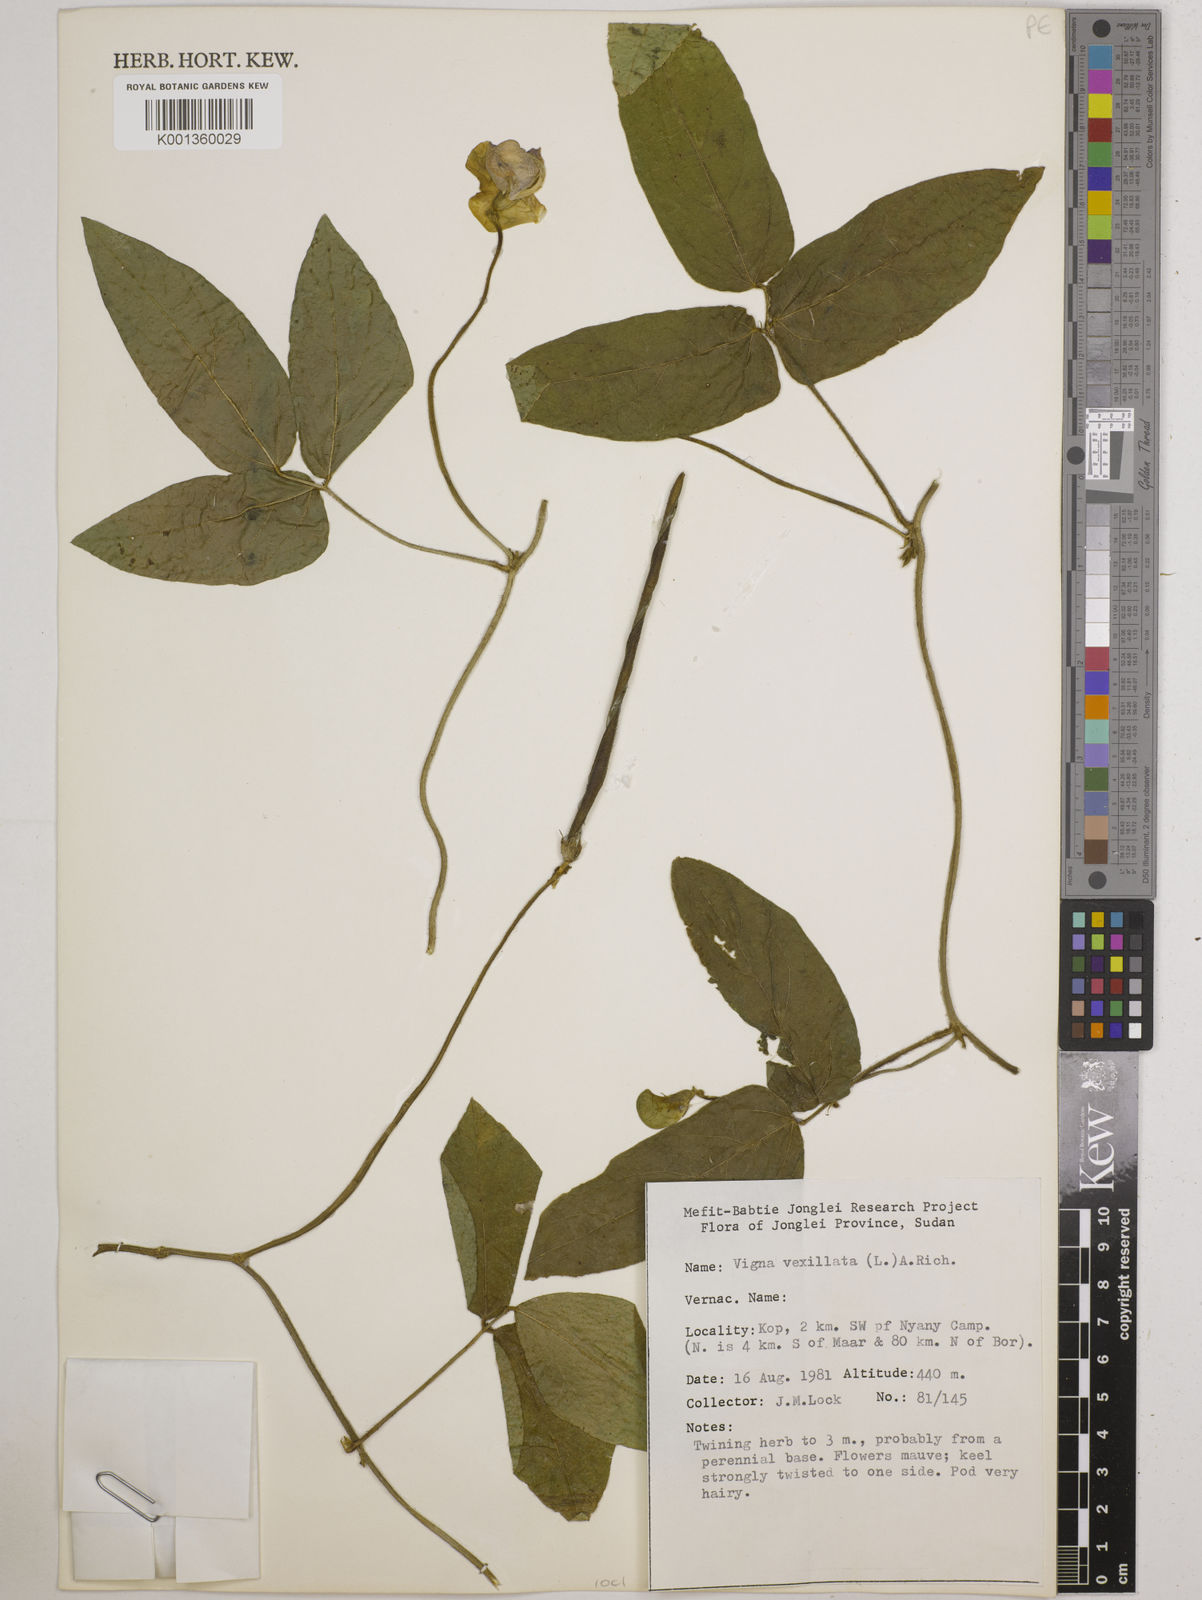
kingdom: Plantae
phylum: Tracheophyta
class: Magnoliopsida
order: Fabales
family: Fabaceae
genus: Vigna
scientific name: Vigna vexillata
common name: Zombi pea
